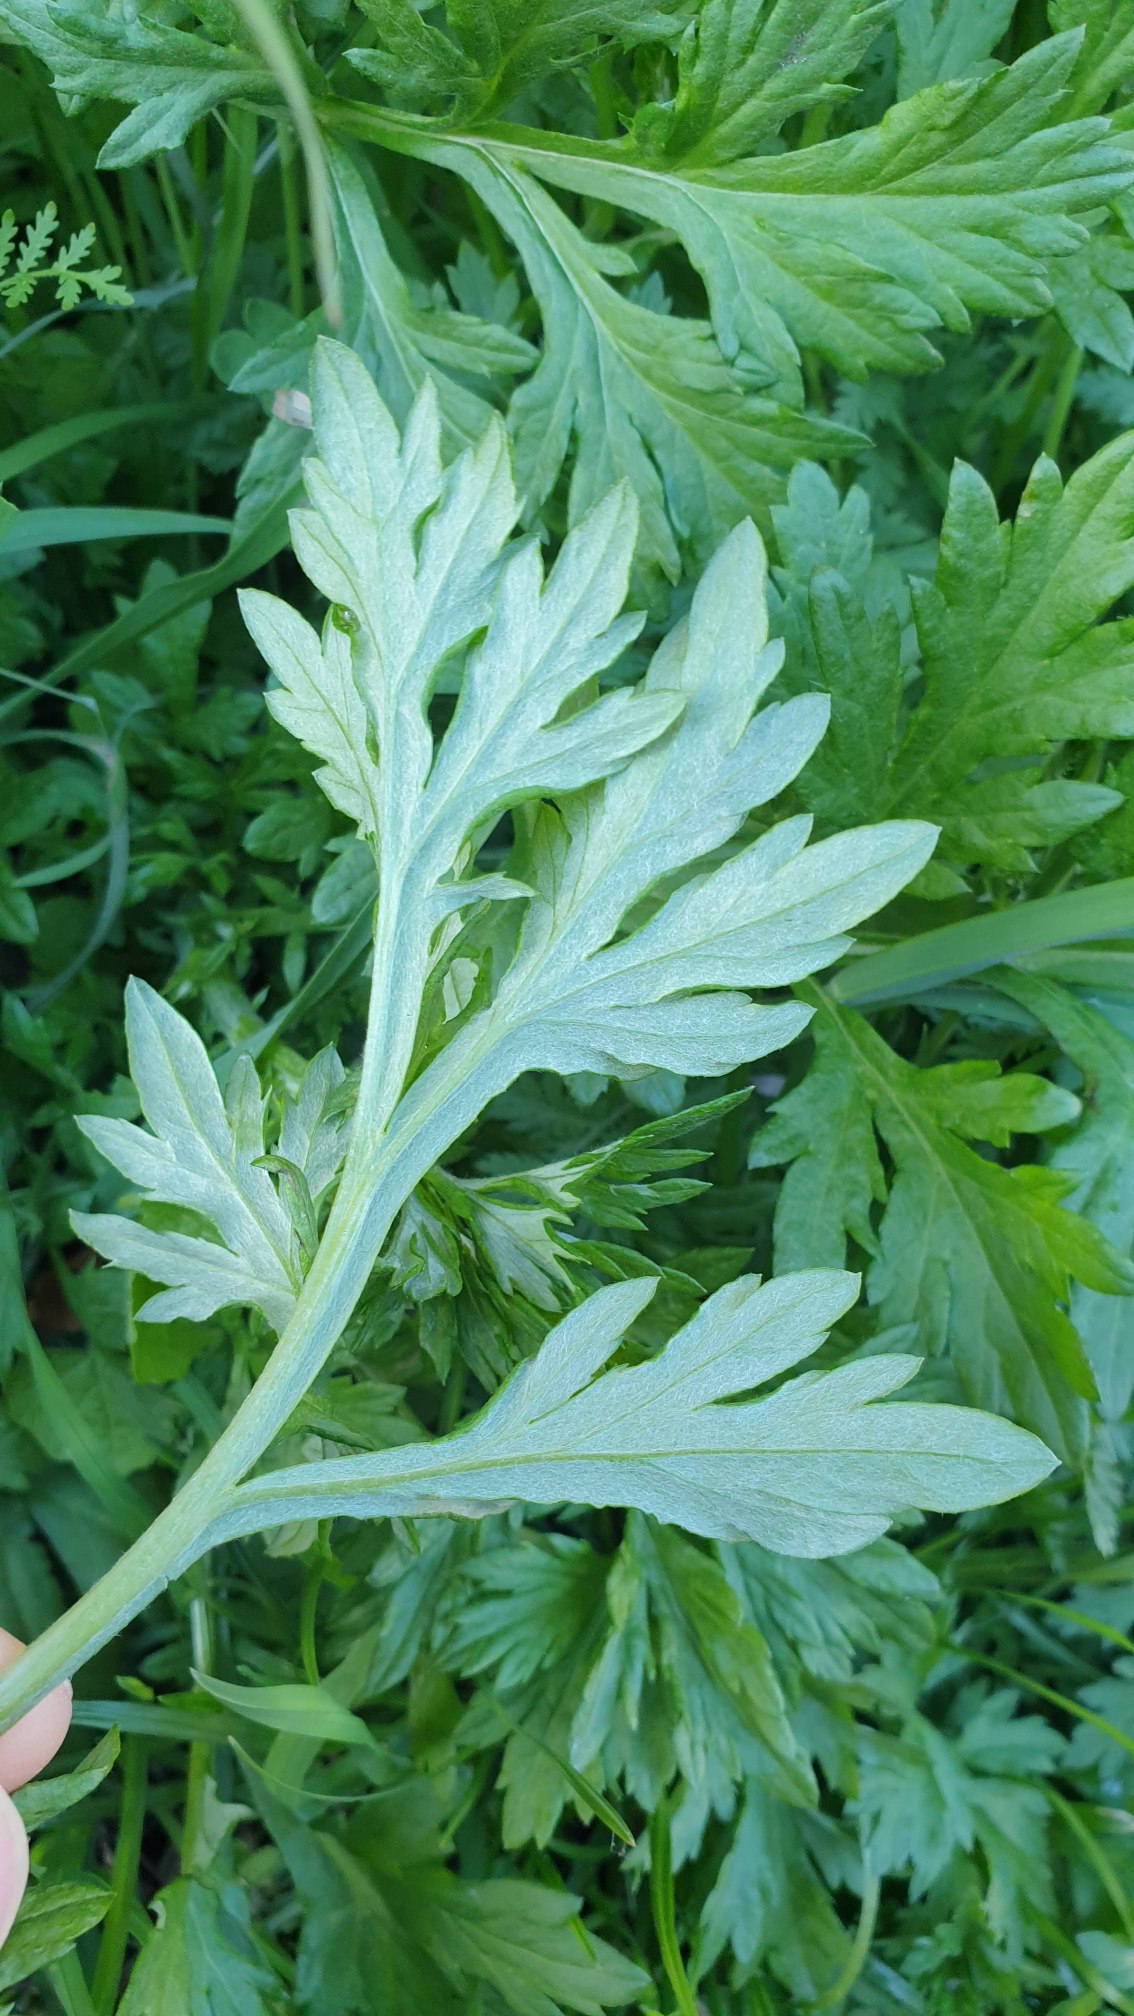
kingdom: Plantae
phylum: Tracheophyta
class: Magnoliopsida
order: Asterales
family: Asteraceae
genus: Artemisia
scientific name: Artemisia vulgaris
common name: Grå-bynke
